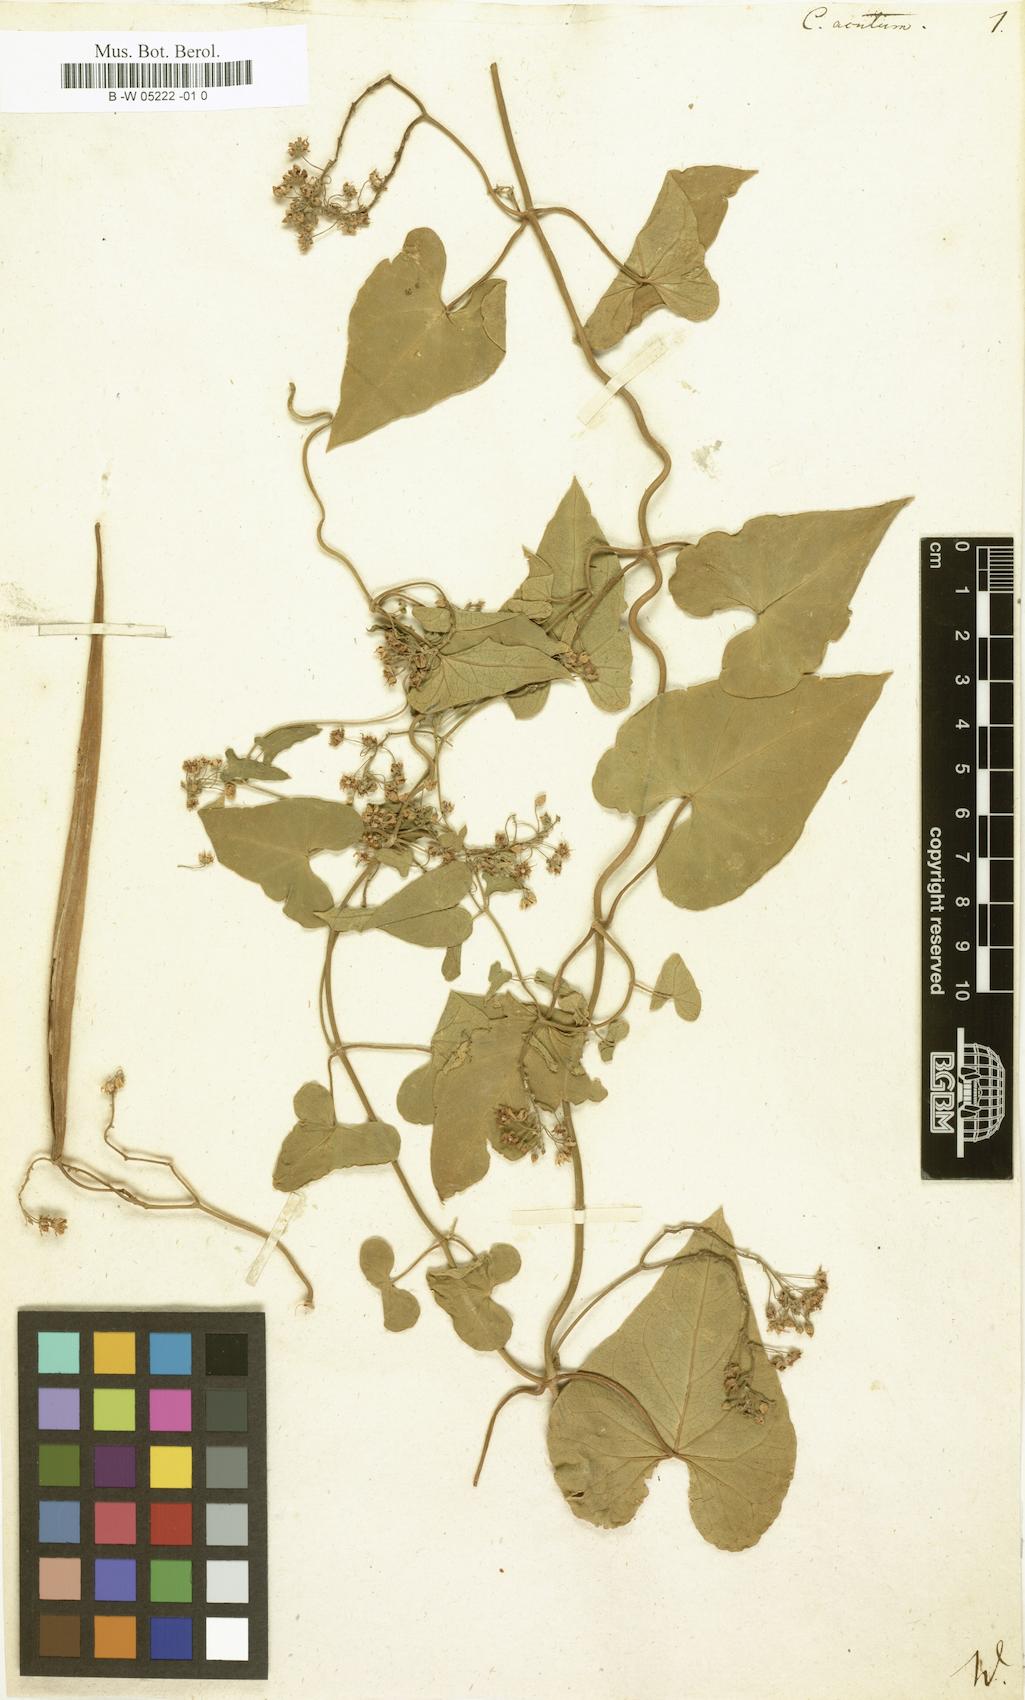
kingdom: Plantae
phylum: Tracheophyta
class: Magnoliopsida
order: Gentianales
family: Apocynaceae
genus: Cynanchum
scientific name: Cynanchum acutum
